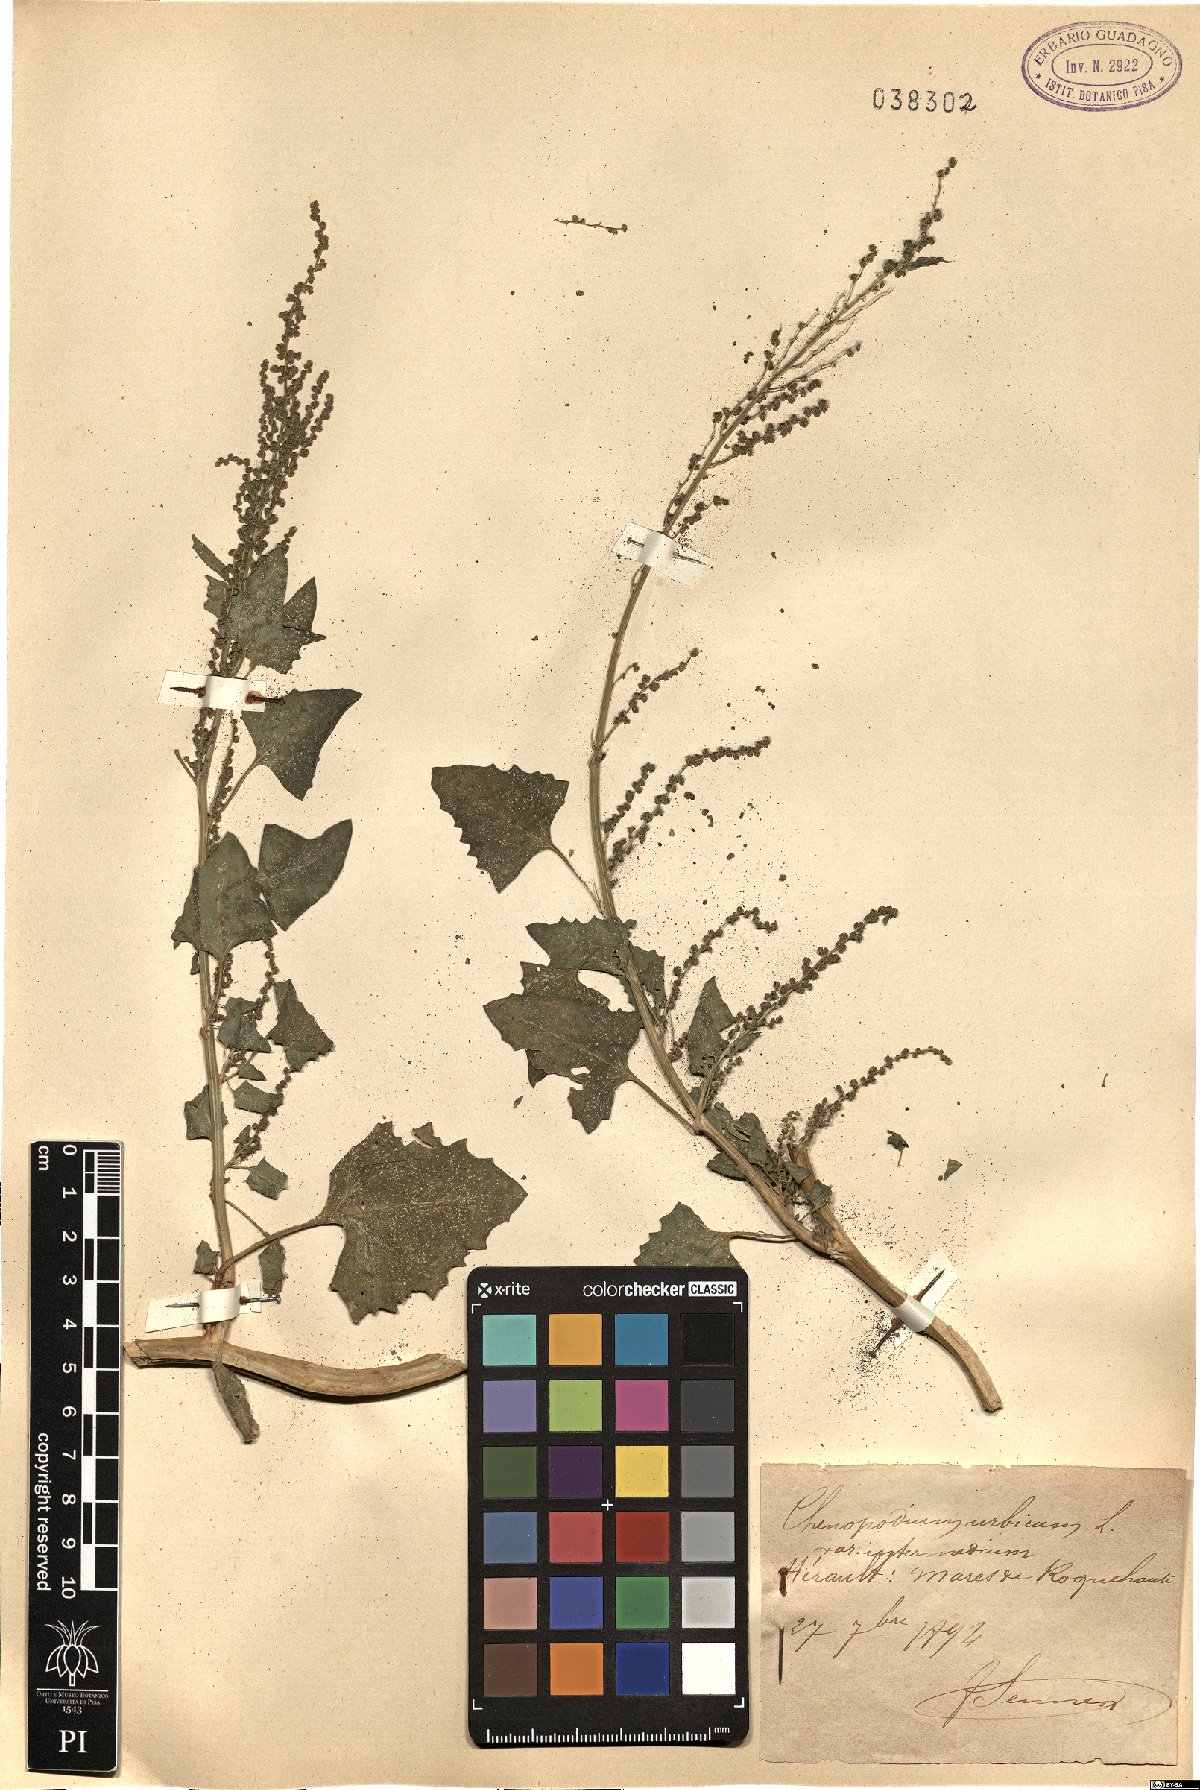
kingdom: Plantae
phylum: Tracheophyta
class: Magnoliopsida
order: Caryophyllales
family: Amaranthaceae
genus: Oxybasis
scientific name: Oxybasis rhombifolia
